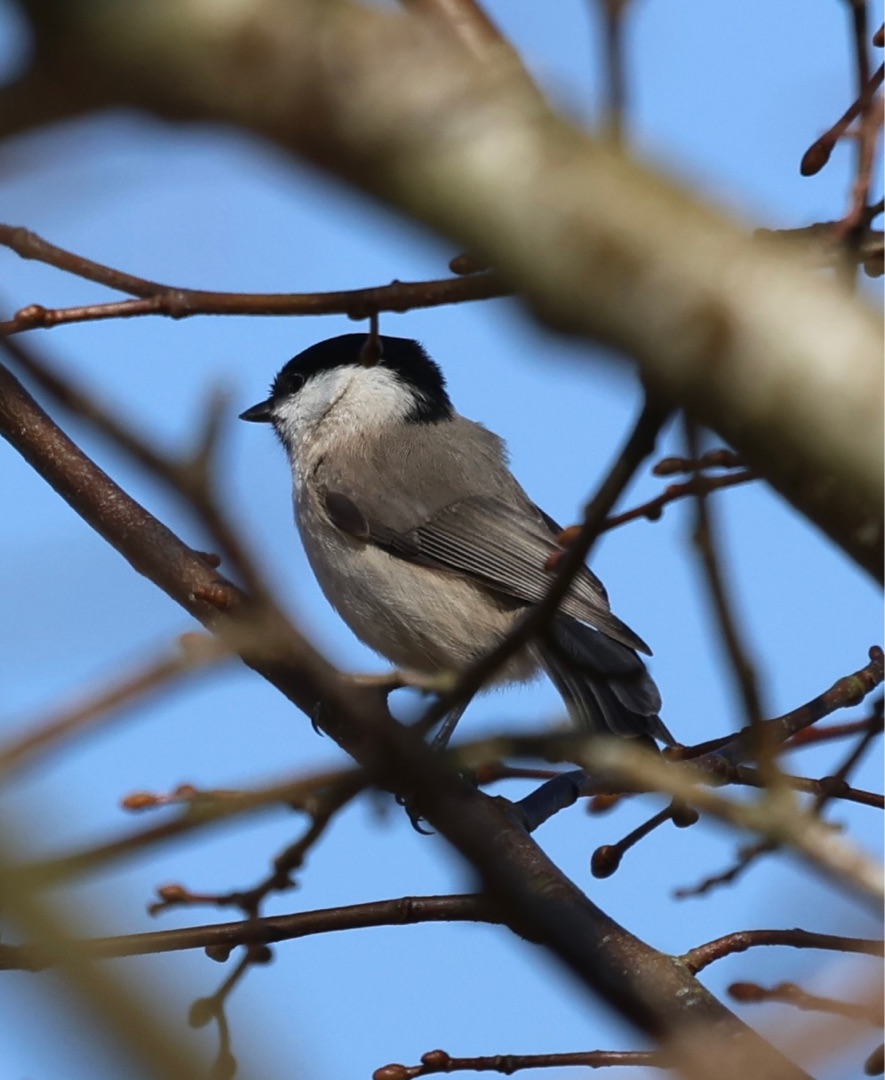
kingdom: Animalia
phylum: Chordata
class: Aves
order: Passeriformes
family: Paridae
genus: Poecile
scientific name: Poecile palustris
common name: Sumpmejse
